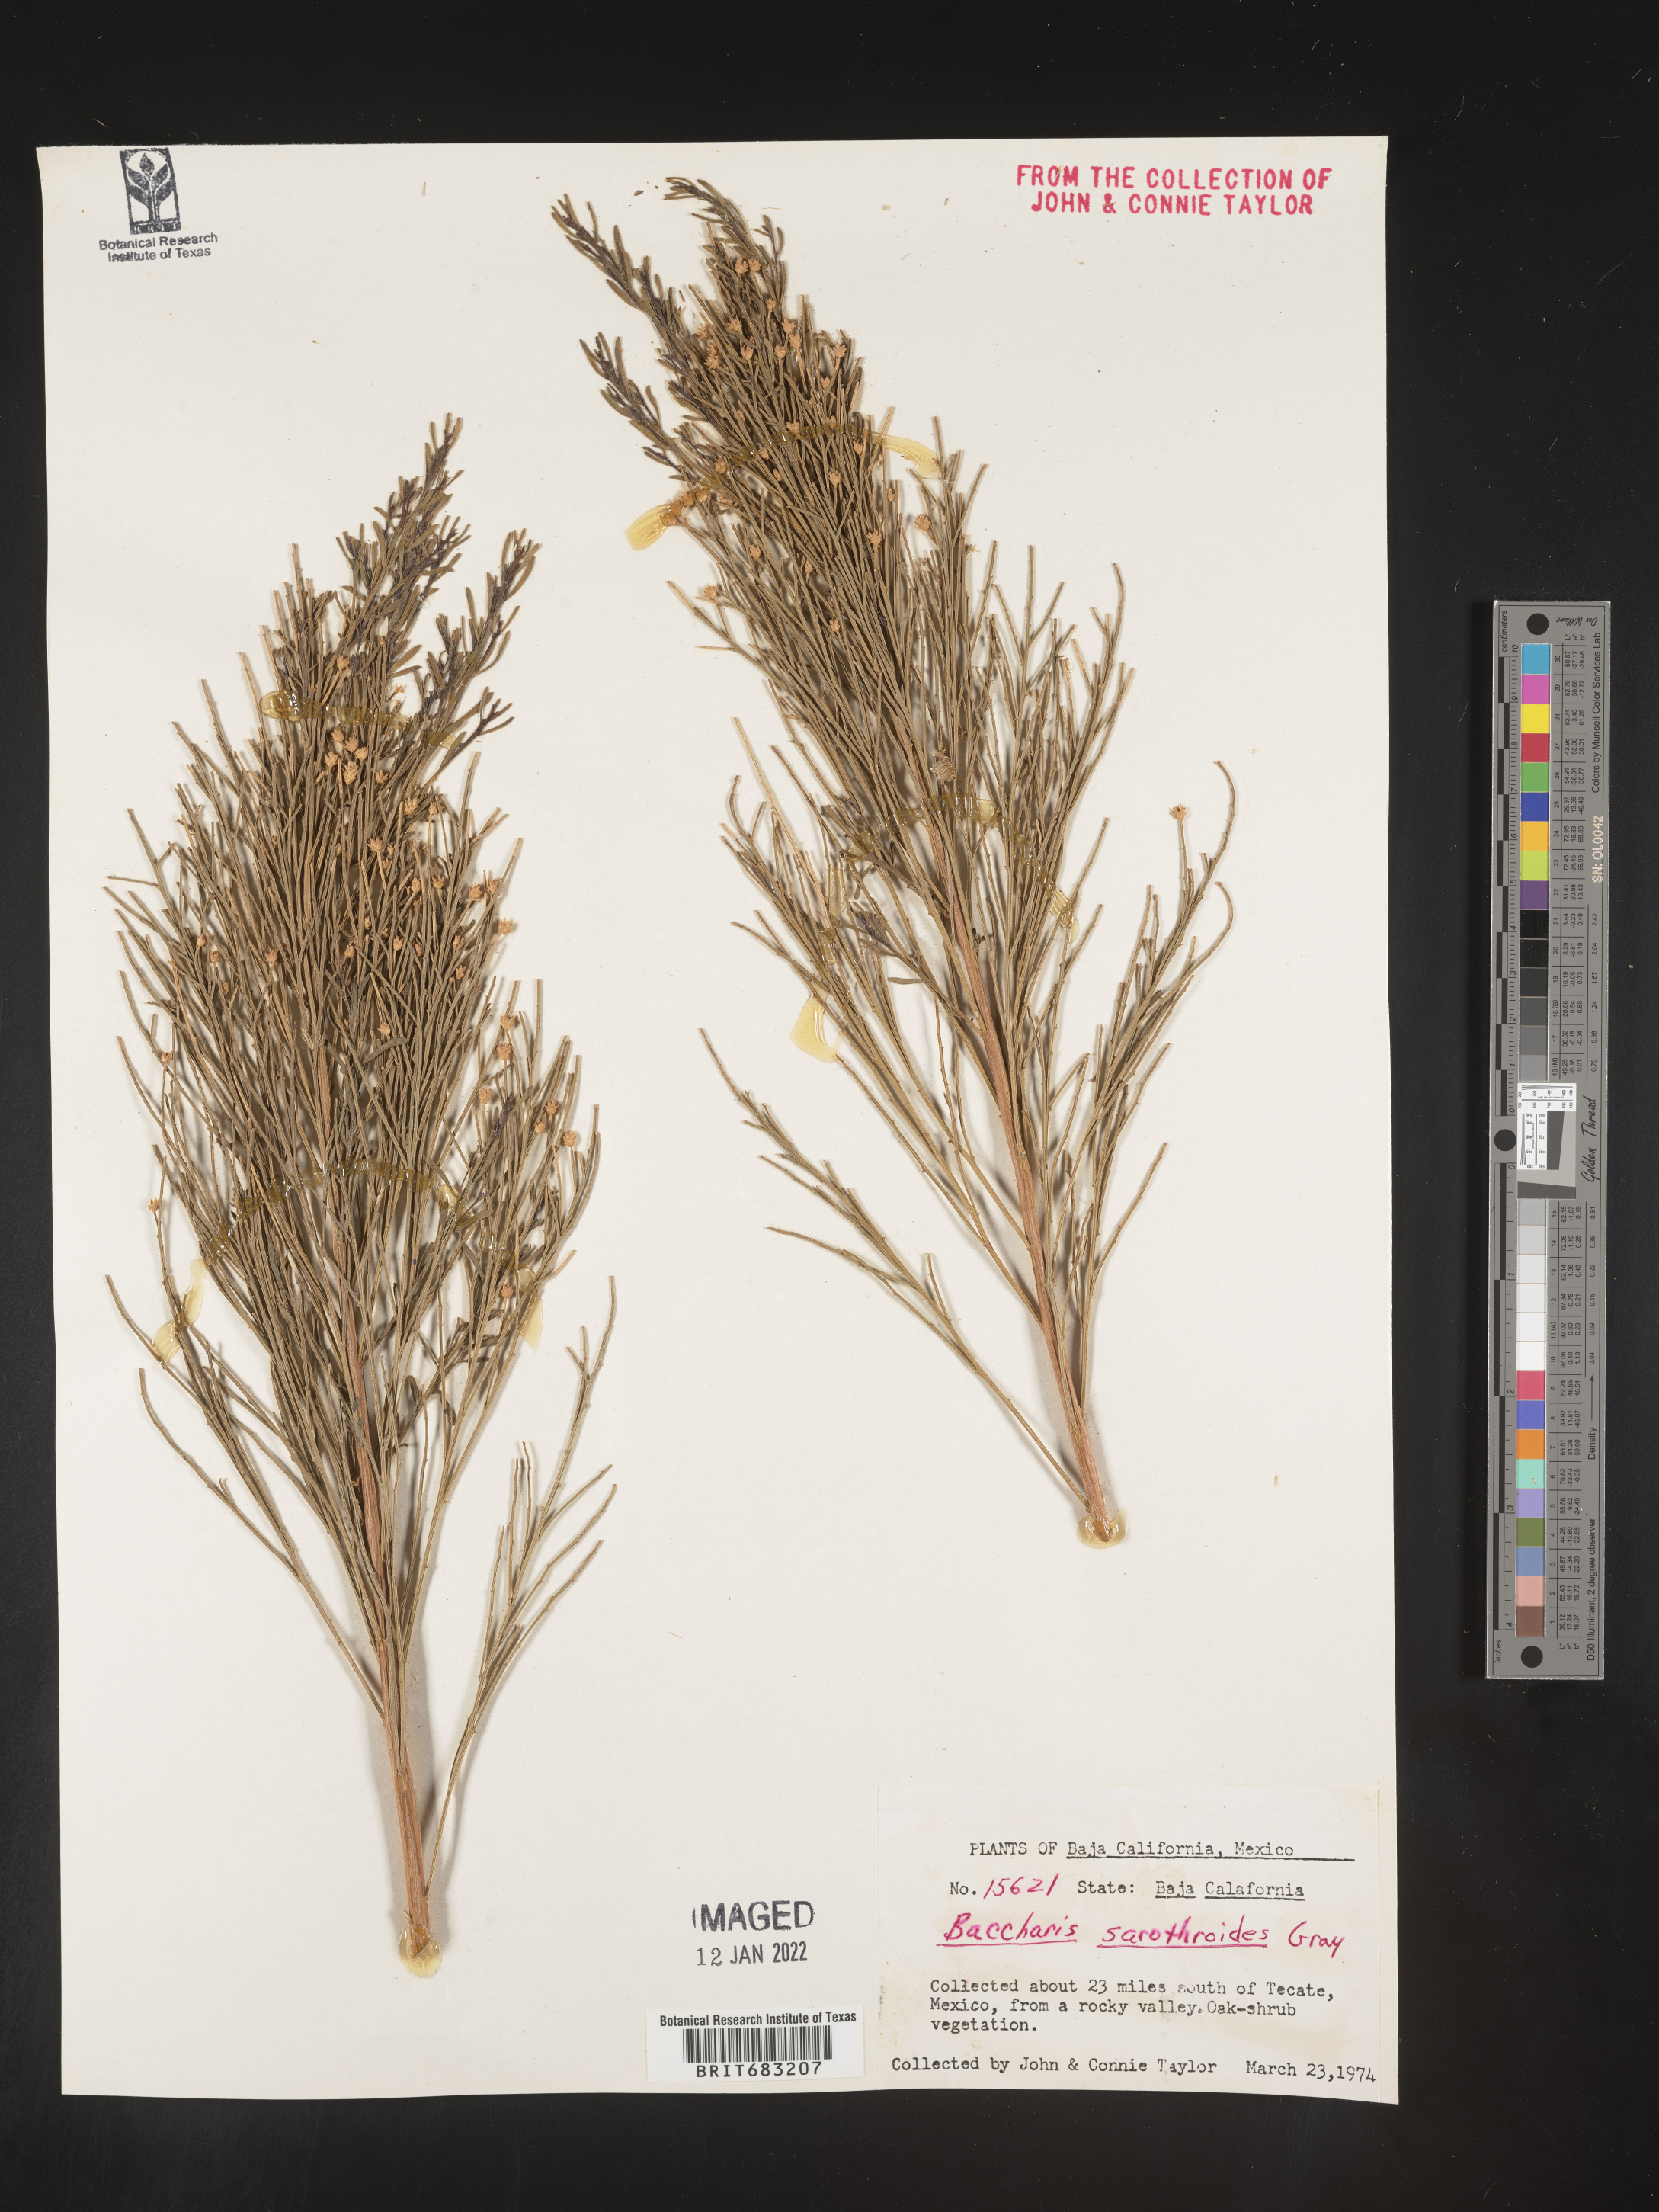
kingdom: Plantae
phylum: Tracheophyta
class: Magnoliopsida
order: Asterales
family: Asteraceae
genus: Baccharis
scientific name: Baccharis sarothroides
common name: Desert-broom
